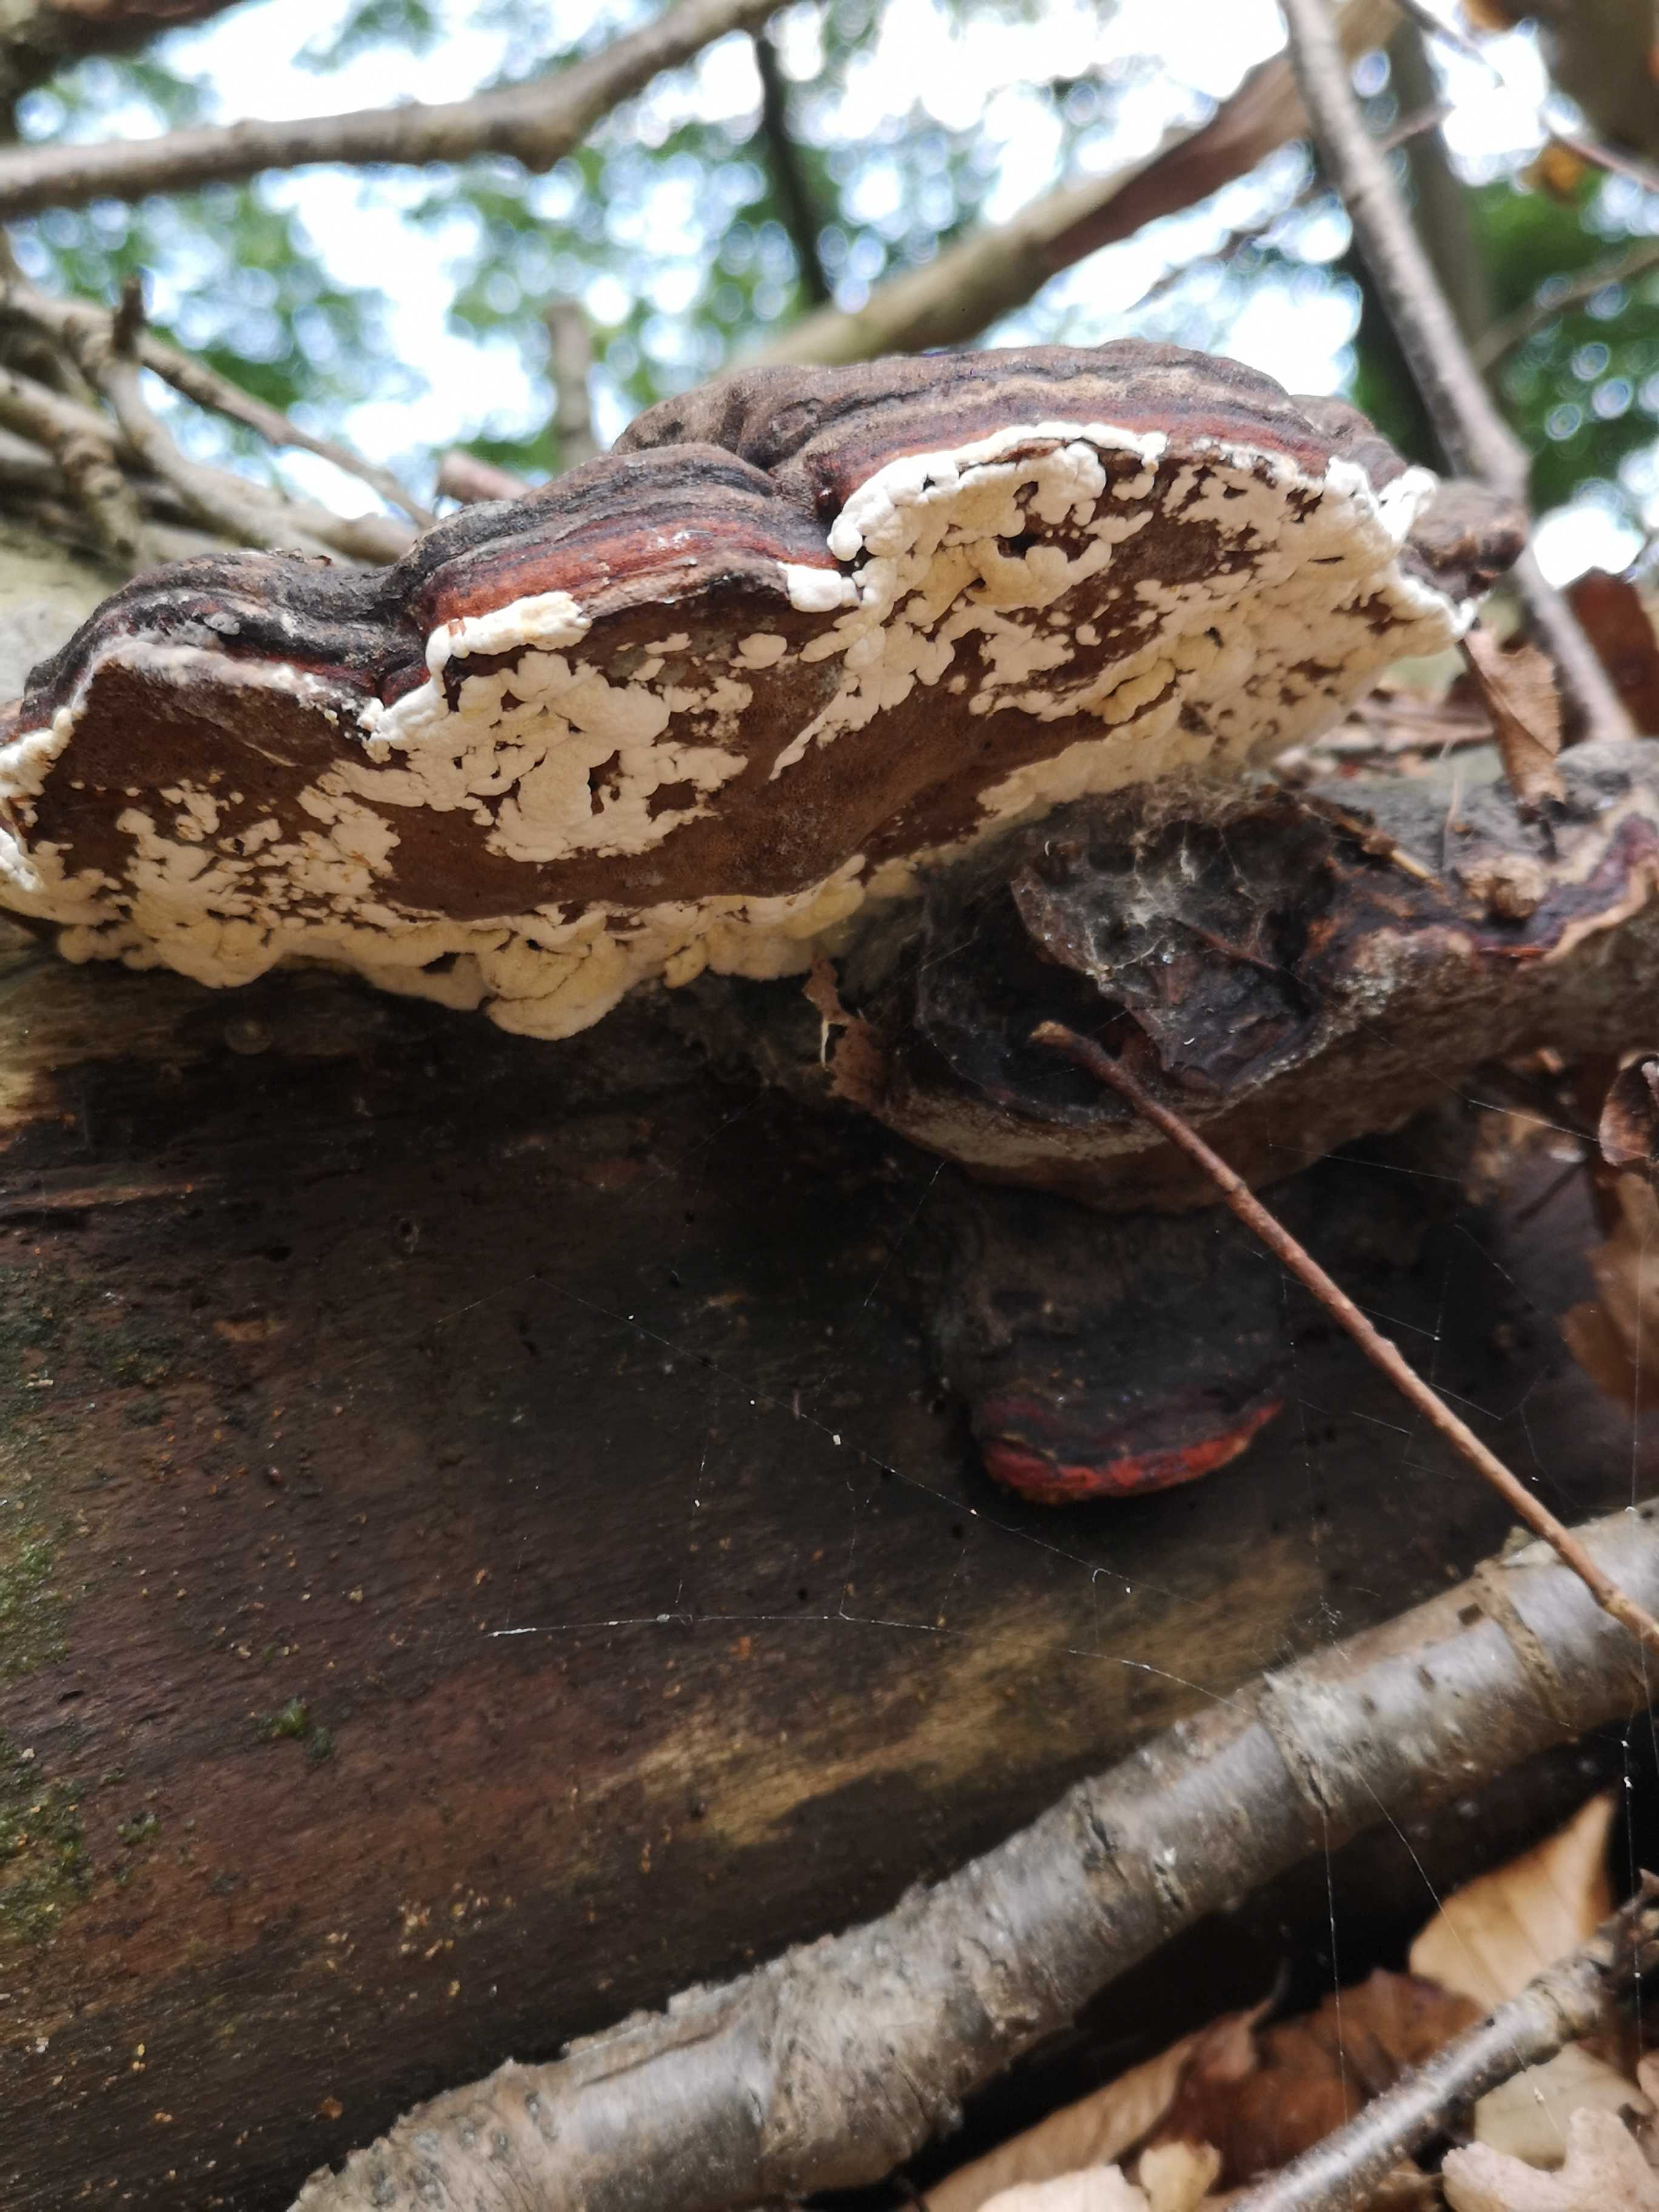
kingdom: Fungi
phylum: Basidiomycota
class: Agaricomycetes
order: Polyporales
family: Fomitopsidaceae
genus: Fomitopsis
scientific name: Fomitopsis pinicola
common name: randbæltet hovporesvamp
